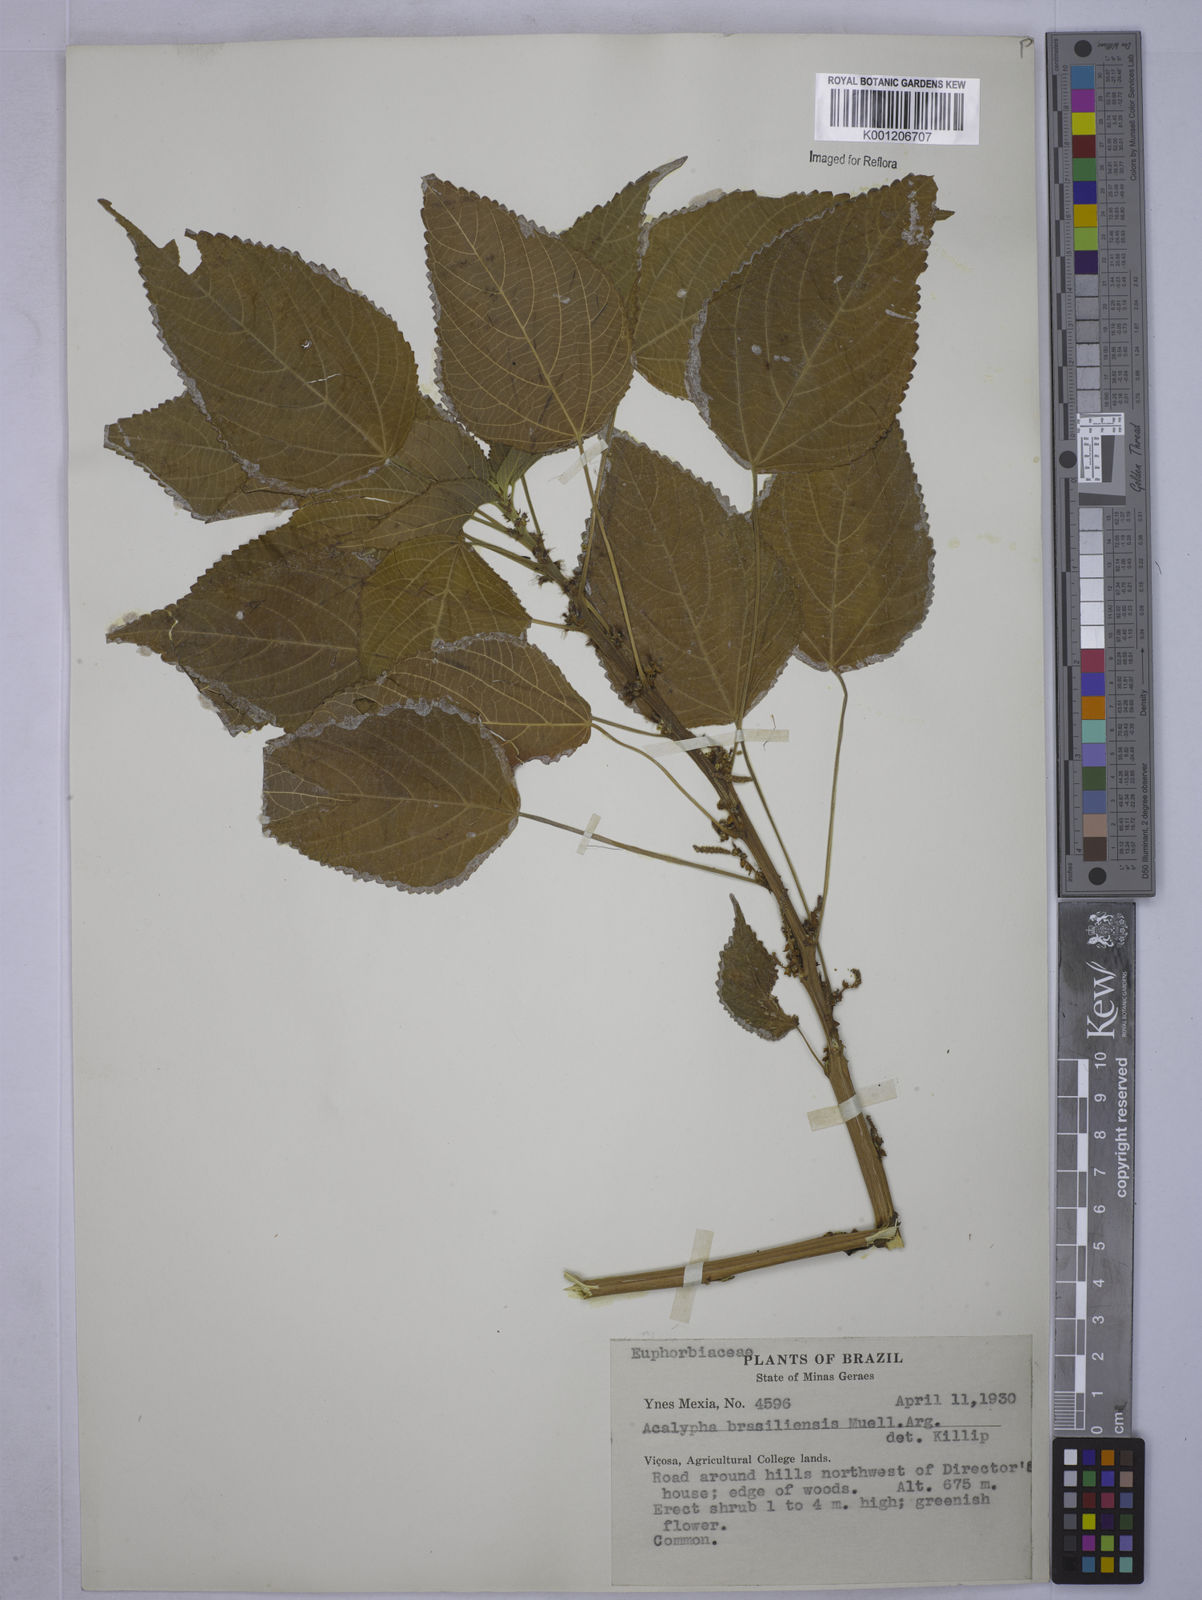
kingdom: Plantae
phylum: Tracheophyta
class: Magnoliopsida
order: Malpighiales
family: Euphorbiaceae
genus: Acalypha
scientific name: Acalypha
